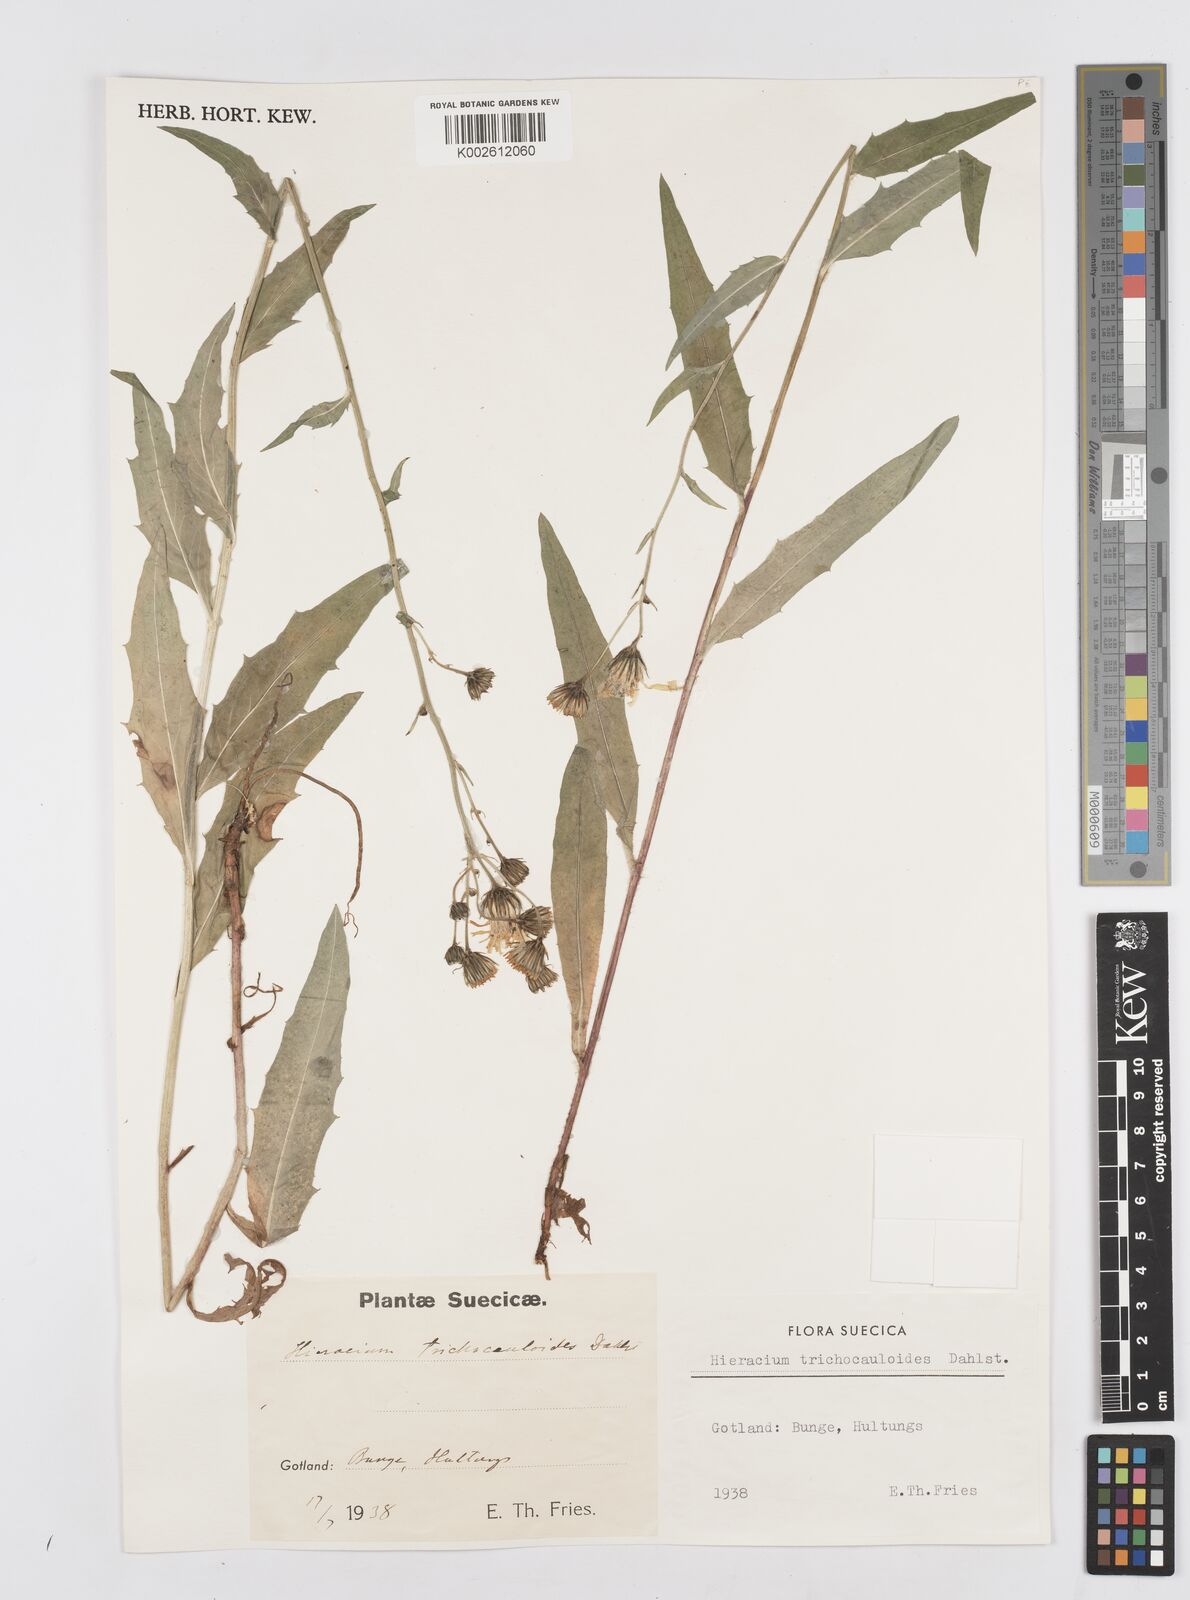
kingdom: Plantae
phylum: Tracheophyta
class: Magnoliopsida
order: Asterales
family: Asteraceae
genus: Hieracium
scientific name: Hieracium trichocauloides
